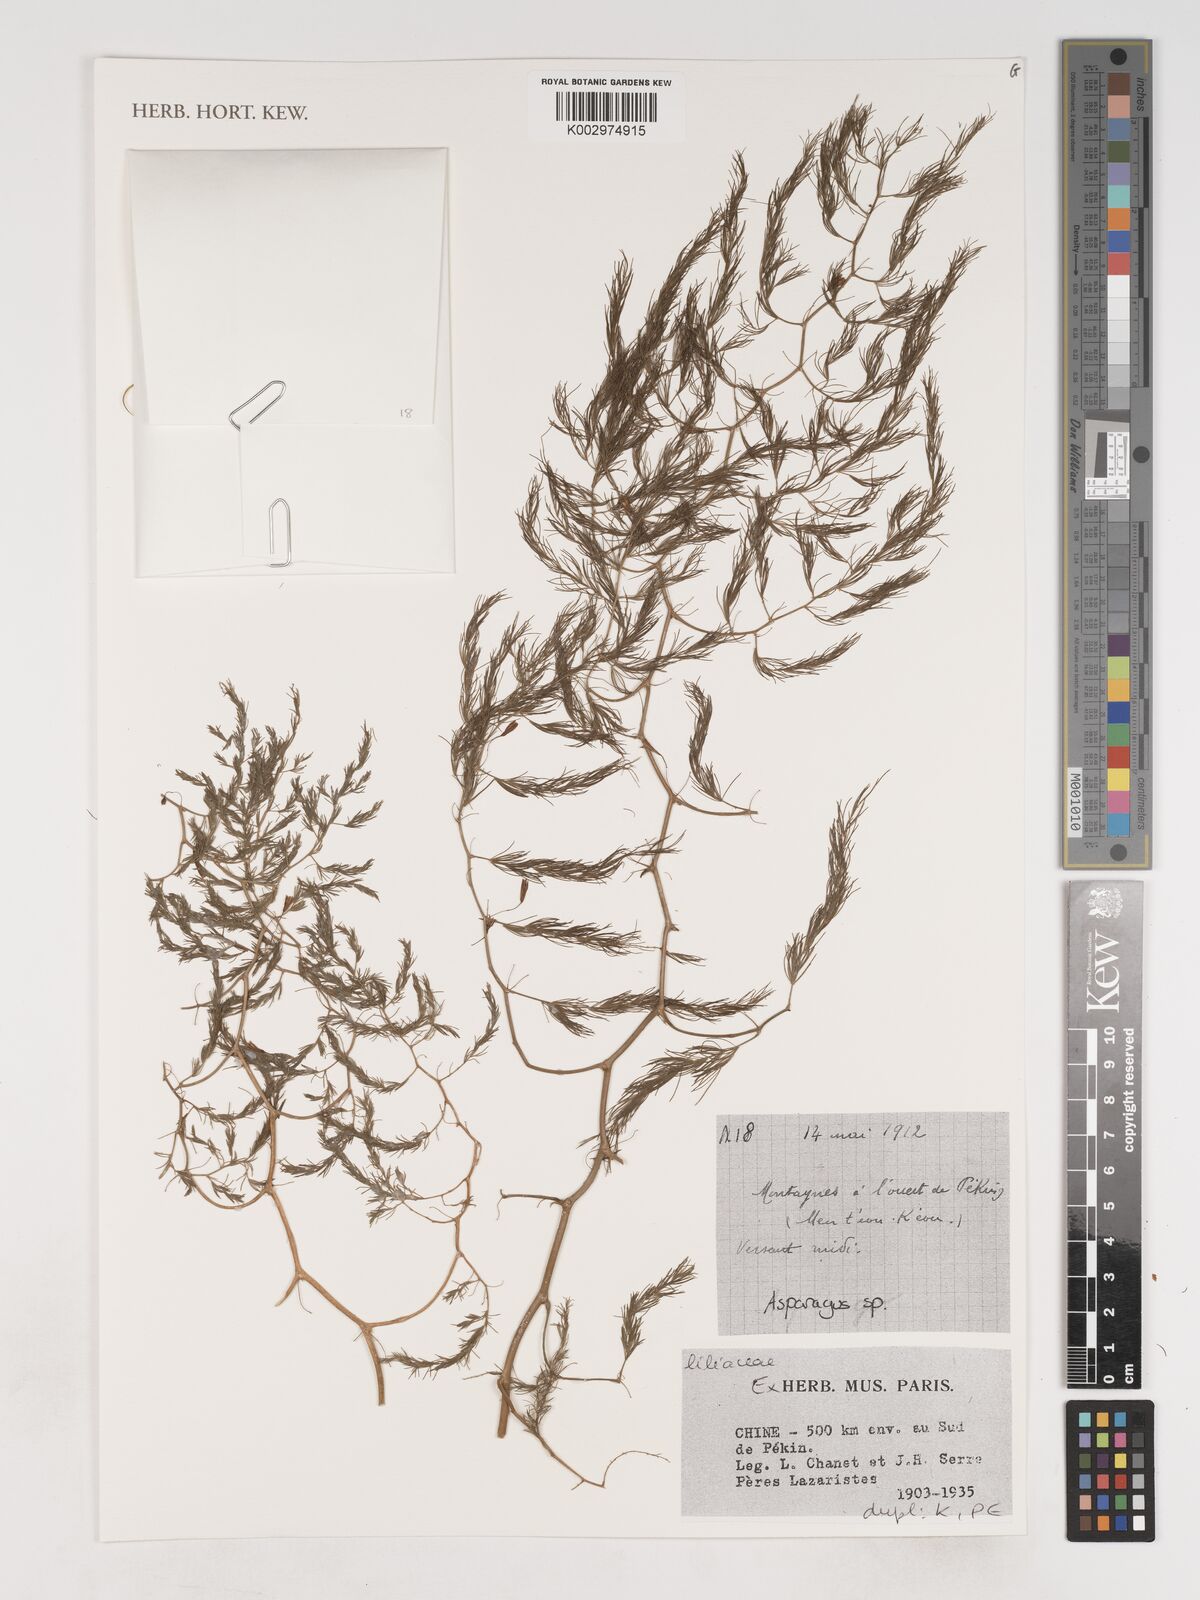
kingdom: Plantae
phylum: Tracheophyta
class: Liliopsida
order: Asparagales
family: Asparagaceae
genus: Asparagus
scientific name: Asparagus
